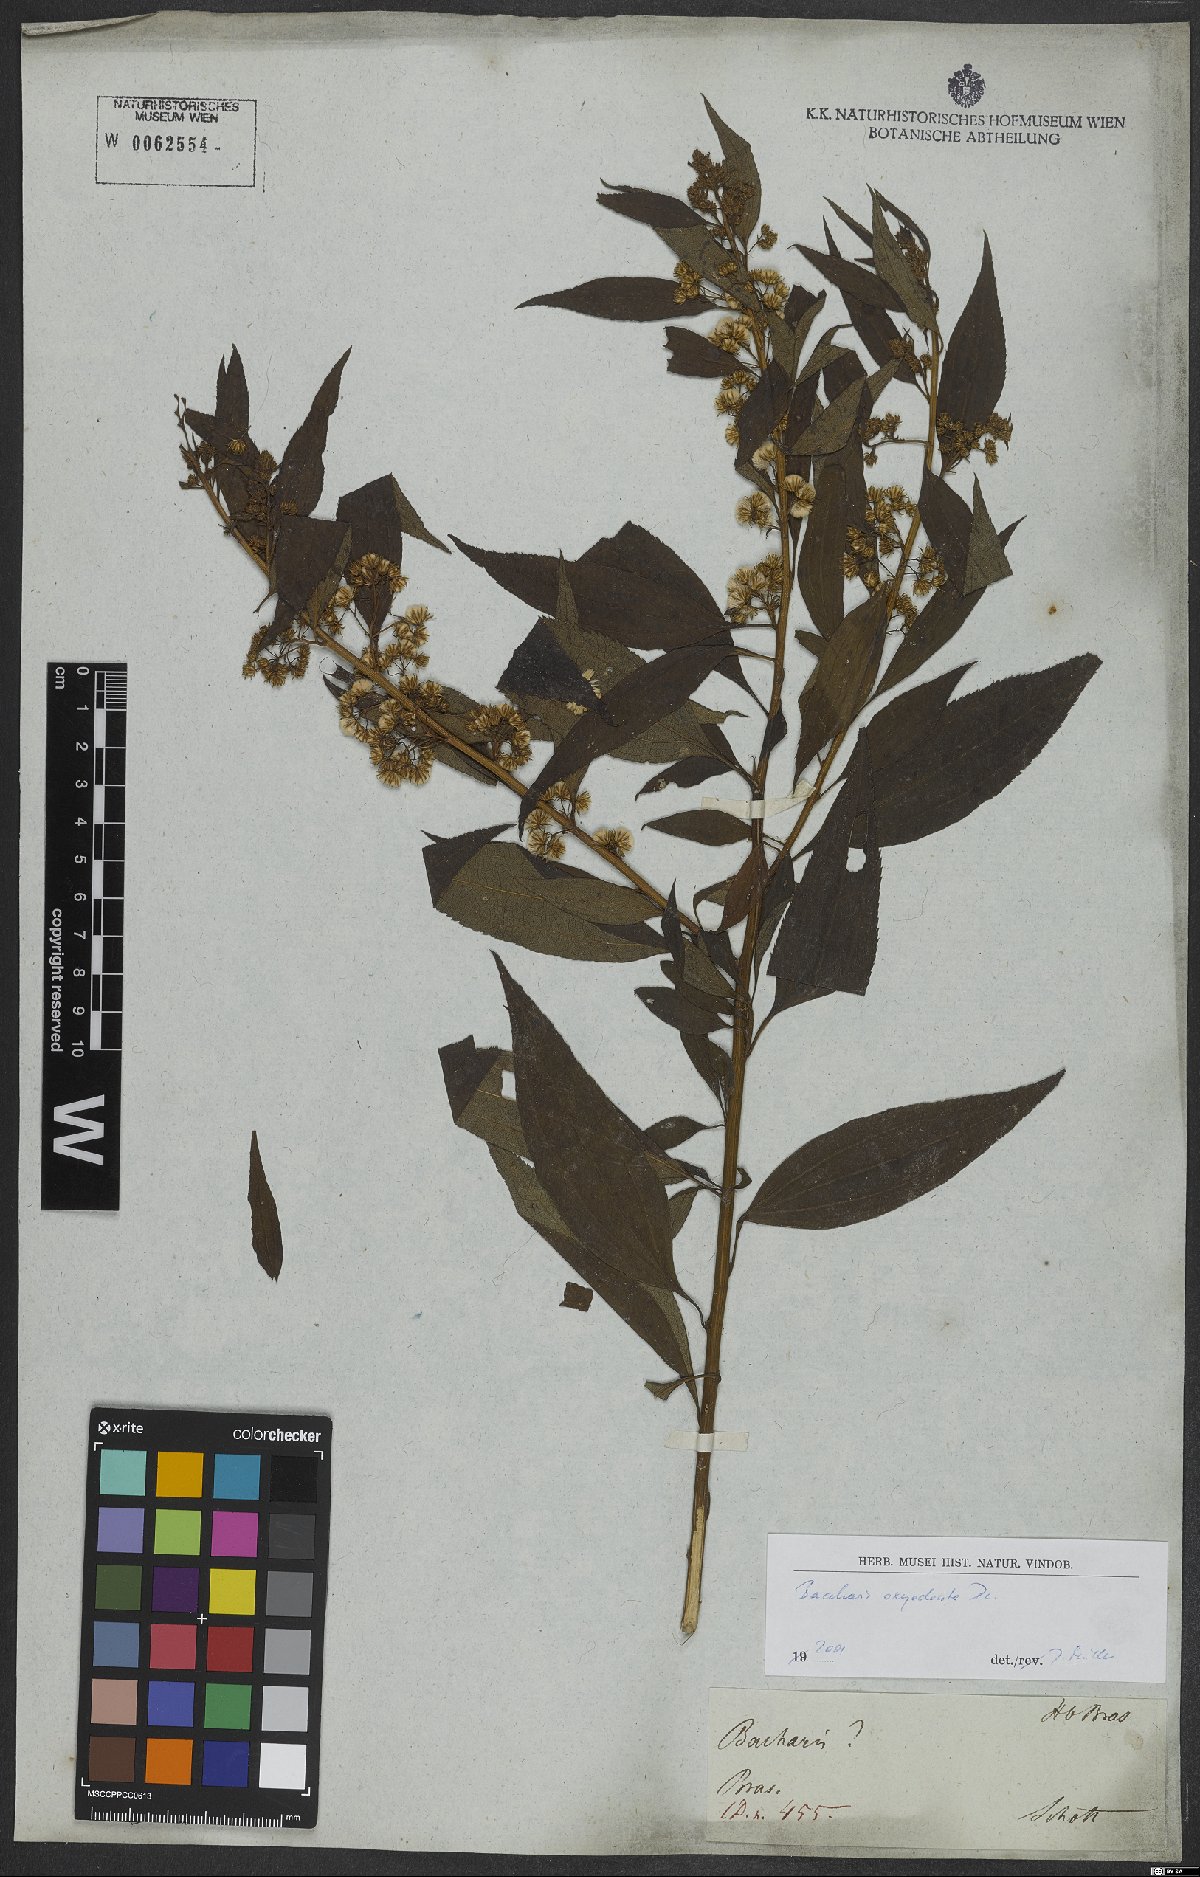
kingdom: Plantae
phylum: Tracheophyta
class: Magnoliopsida
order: Asterales
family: Asteraceae
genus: Baccharis
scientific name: Baccharis oxyodonta
